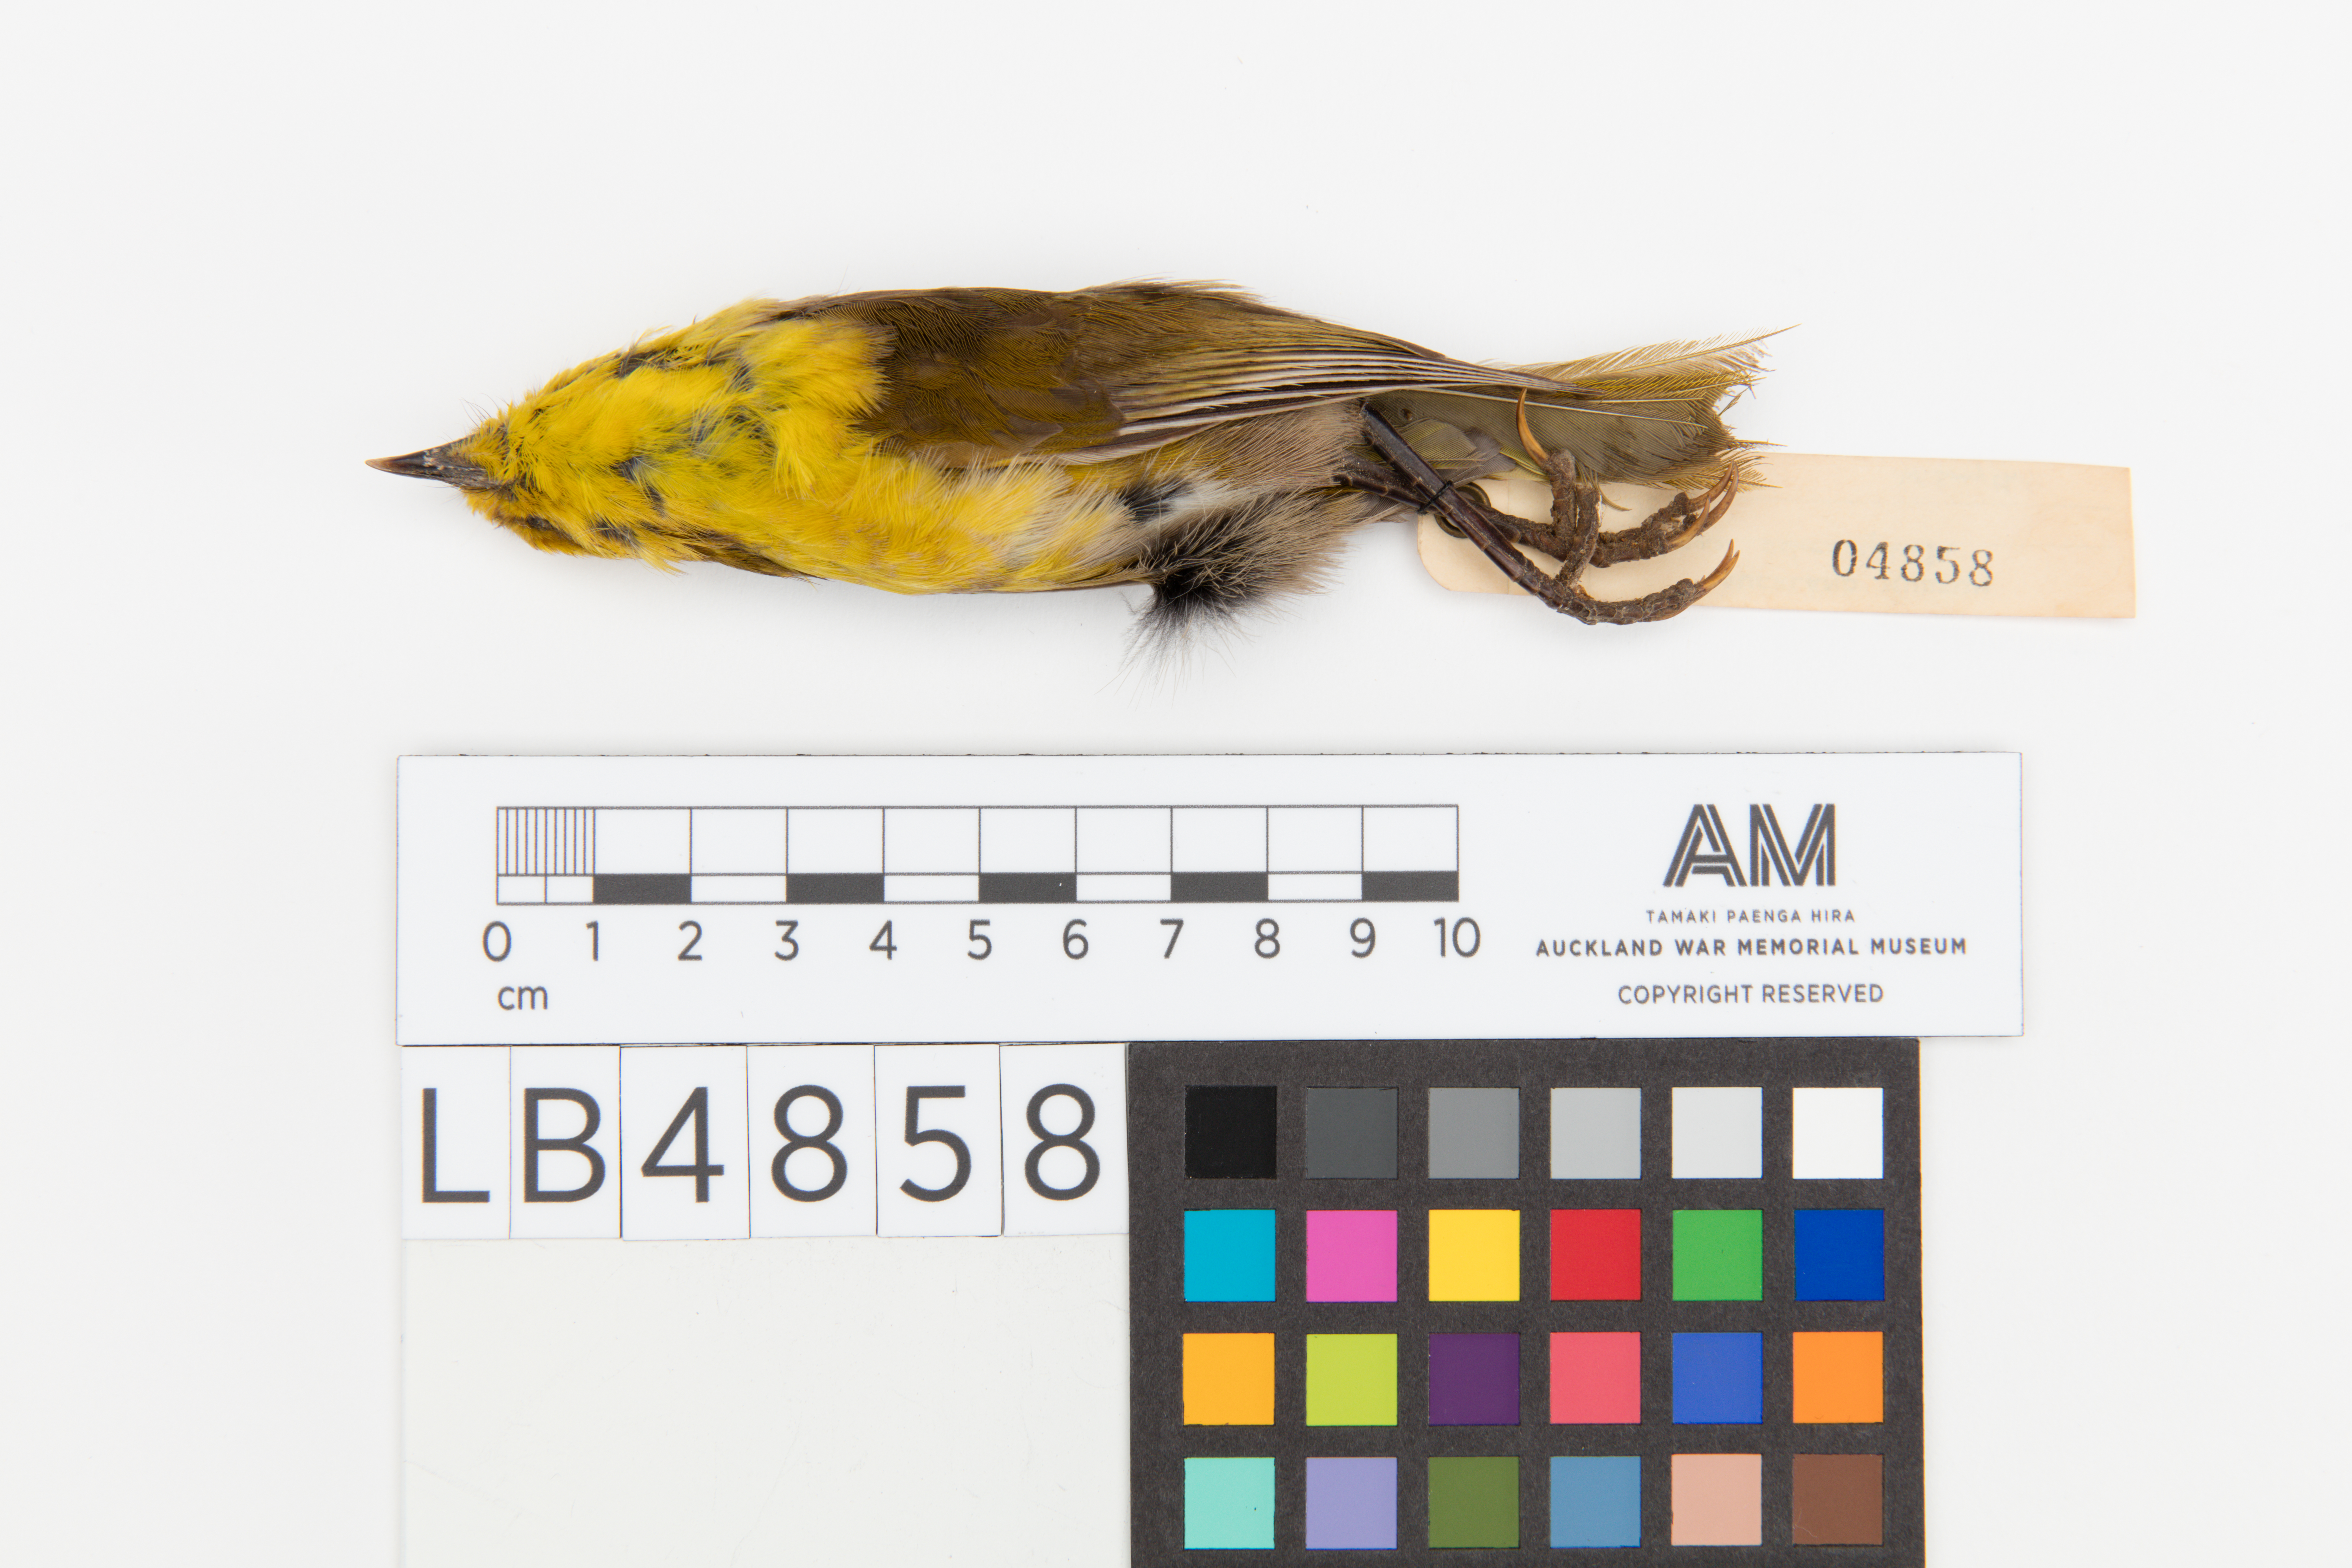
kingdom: Animalia
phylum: Chordata
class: Aves
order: Passeriformes
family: Acanthizidae
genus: Mohoua
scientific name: Mohoua ochrocephala
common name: Yellowhead
